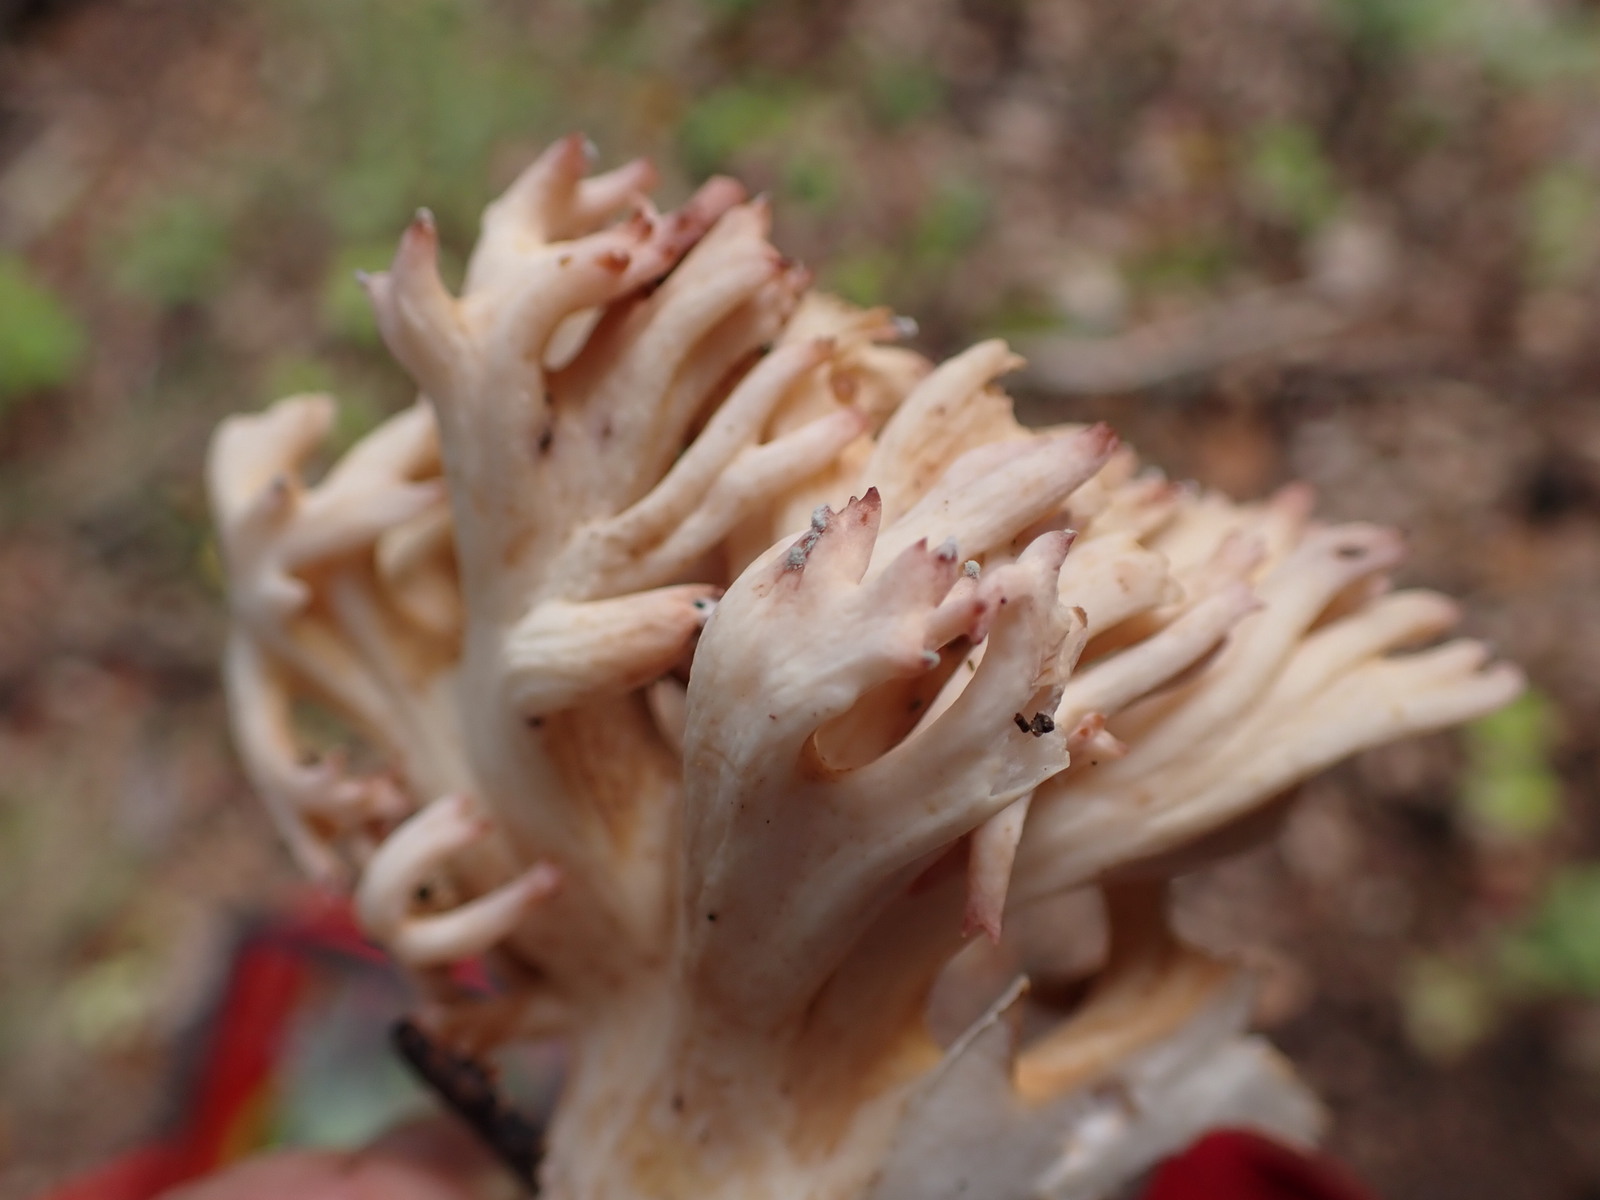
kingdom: Fungi
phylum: Basidiomycota
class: Agaricomycetes
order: Gomphales
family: Gomphaceae
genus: Ramaria
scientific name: Ramaria botrytis
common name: drue-koralsvamp
